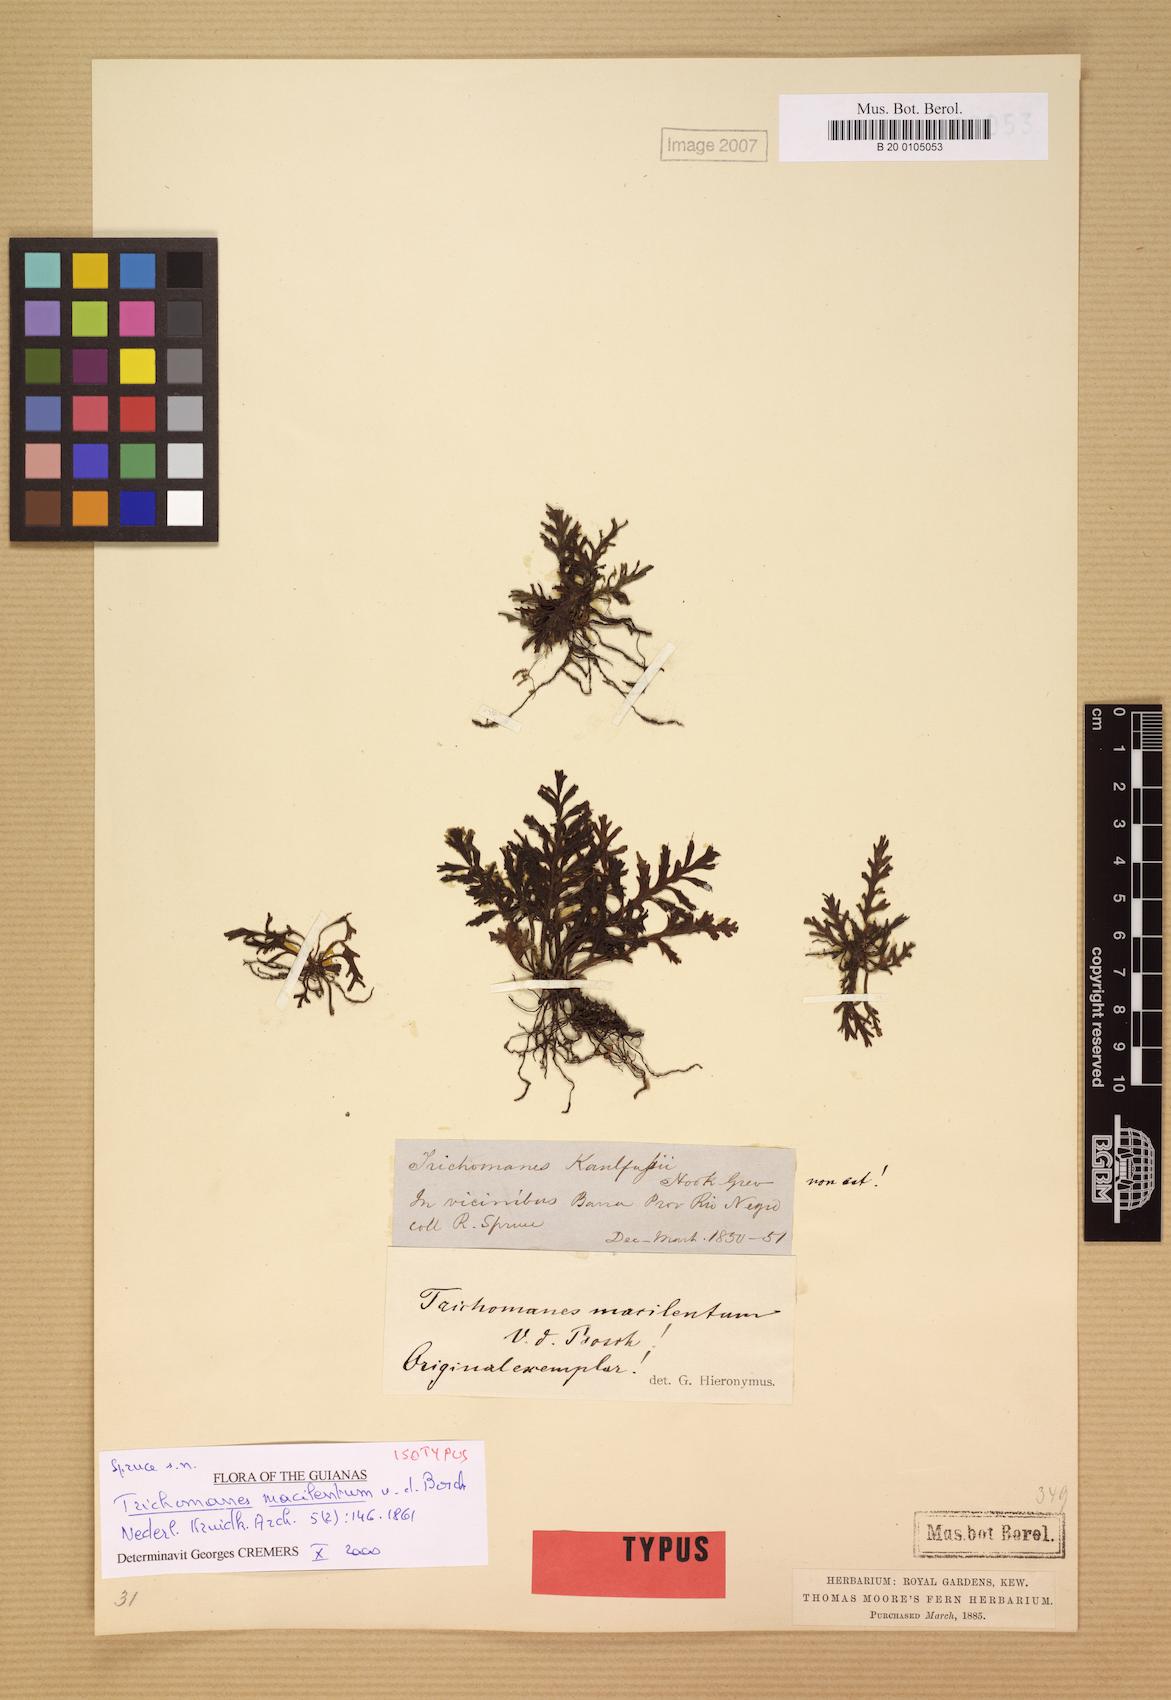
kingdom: Plantae
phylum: Tracheophyta
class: Polypodiopsida
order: Hymenophyllales
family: Hymenophyllaceae
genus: Trichomanes
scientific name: Trichomanes macilentum
